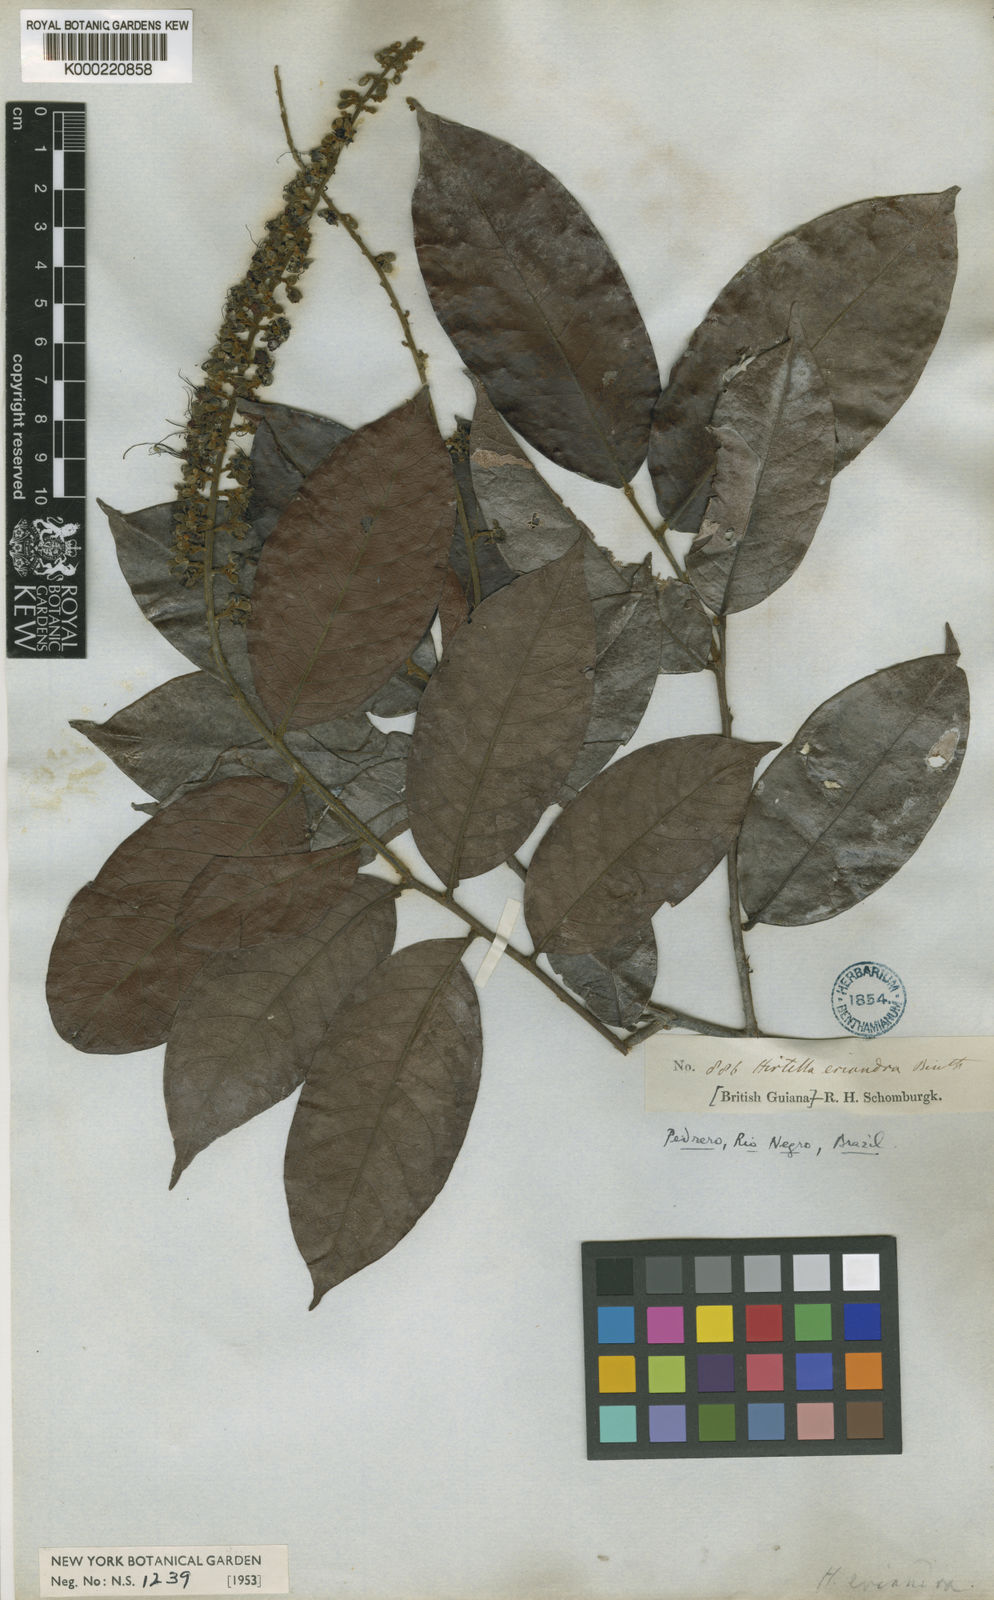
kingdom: Plantae
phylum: Tracheophyta
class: Magnoliopsida
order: Malpighiales
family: Chrysobalanaceae
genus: Hirtella
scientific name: Hirtella eriandra
